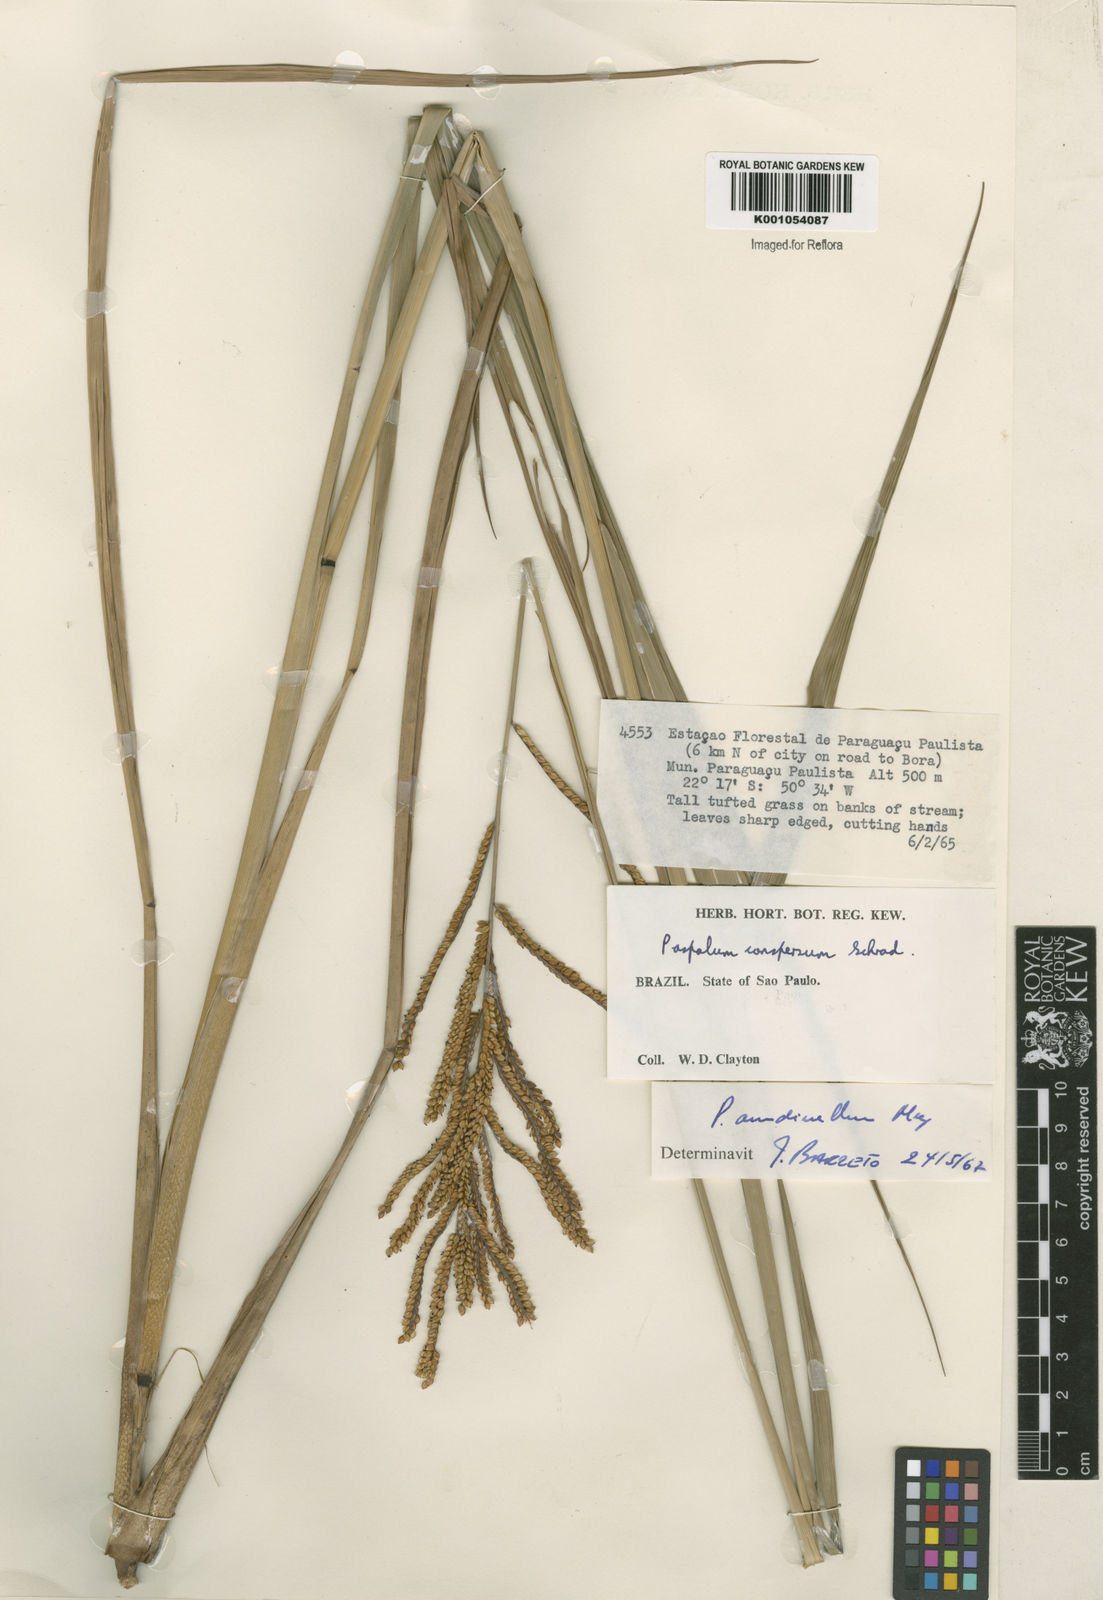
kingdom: Plantae
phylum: Tracheophyta
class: Liliopsida
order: Poales
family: Poaceae
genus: Paspalum
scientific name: Paspalum arundinellum
